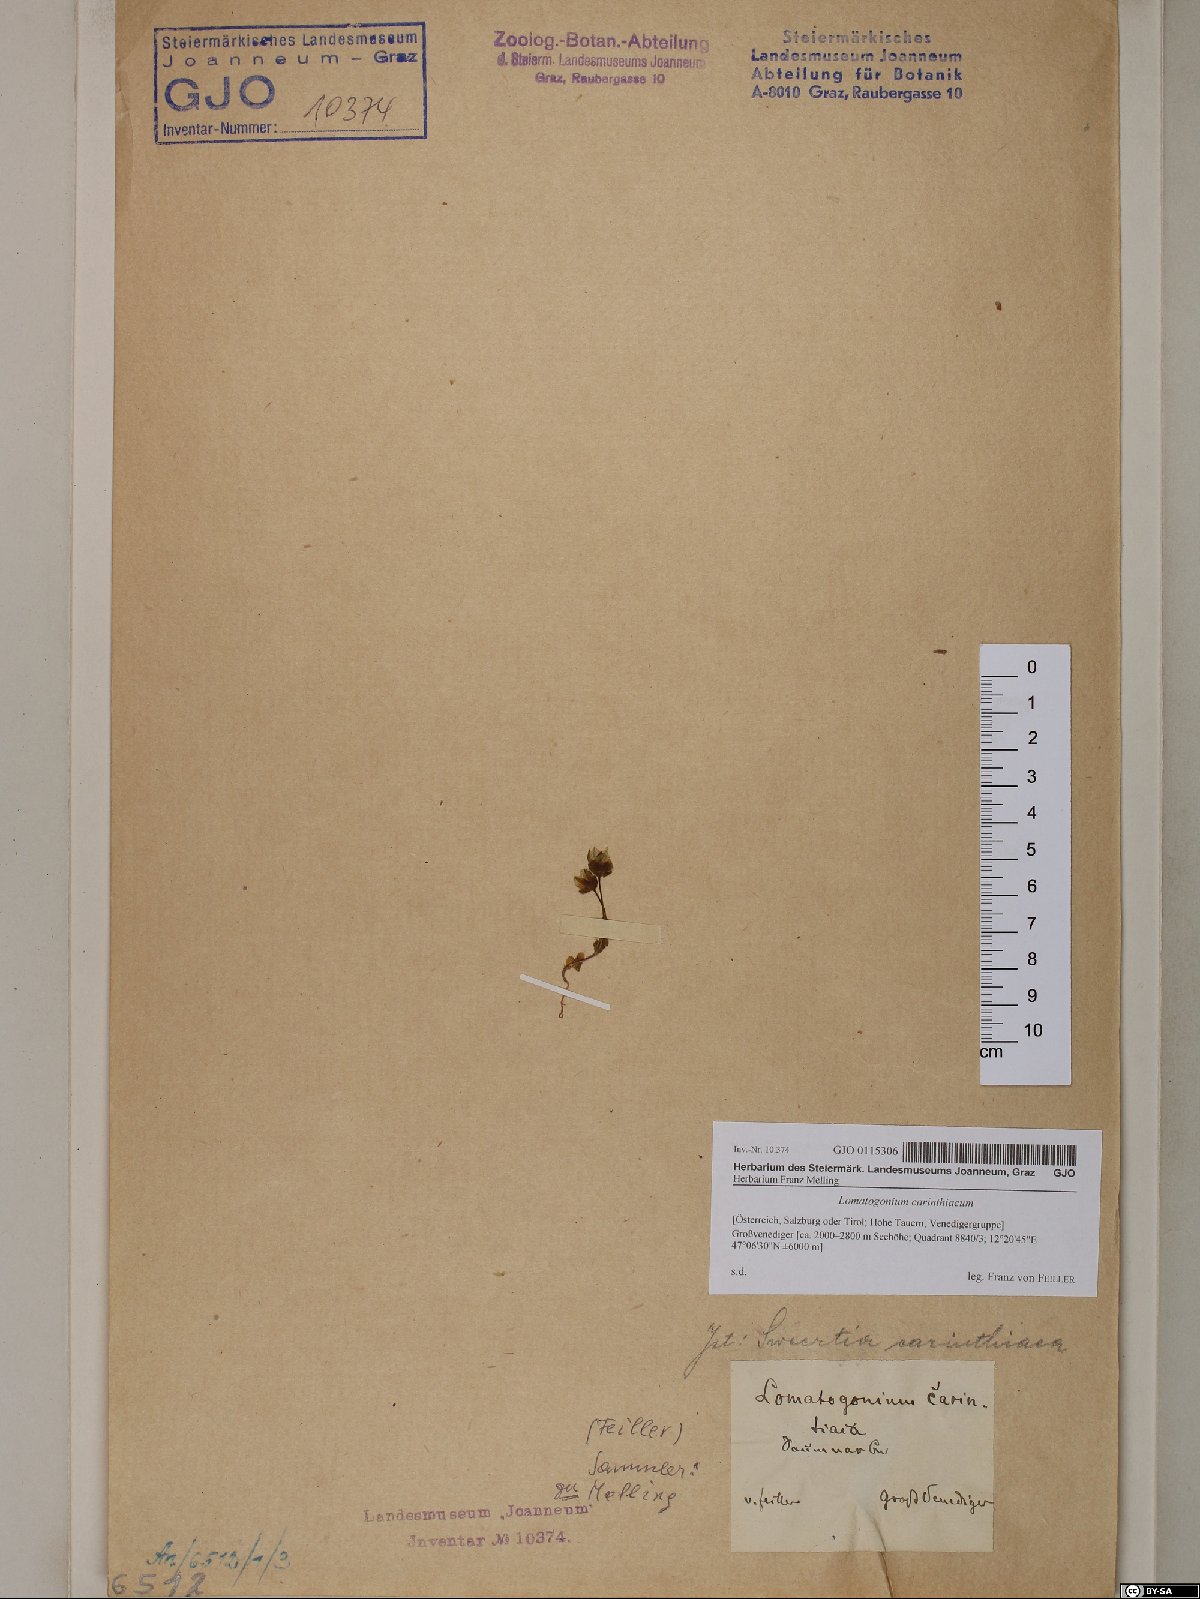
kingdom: Plantae
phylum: Tracheophyta
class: Magnoliopsida
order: Gentianales
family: Gentianaceae
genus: Lomatogonium
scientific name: Lomatogonium carinthiacum
